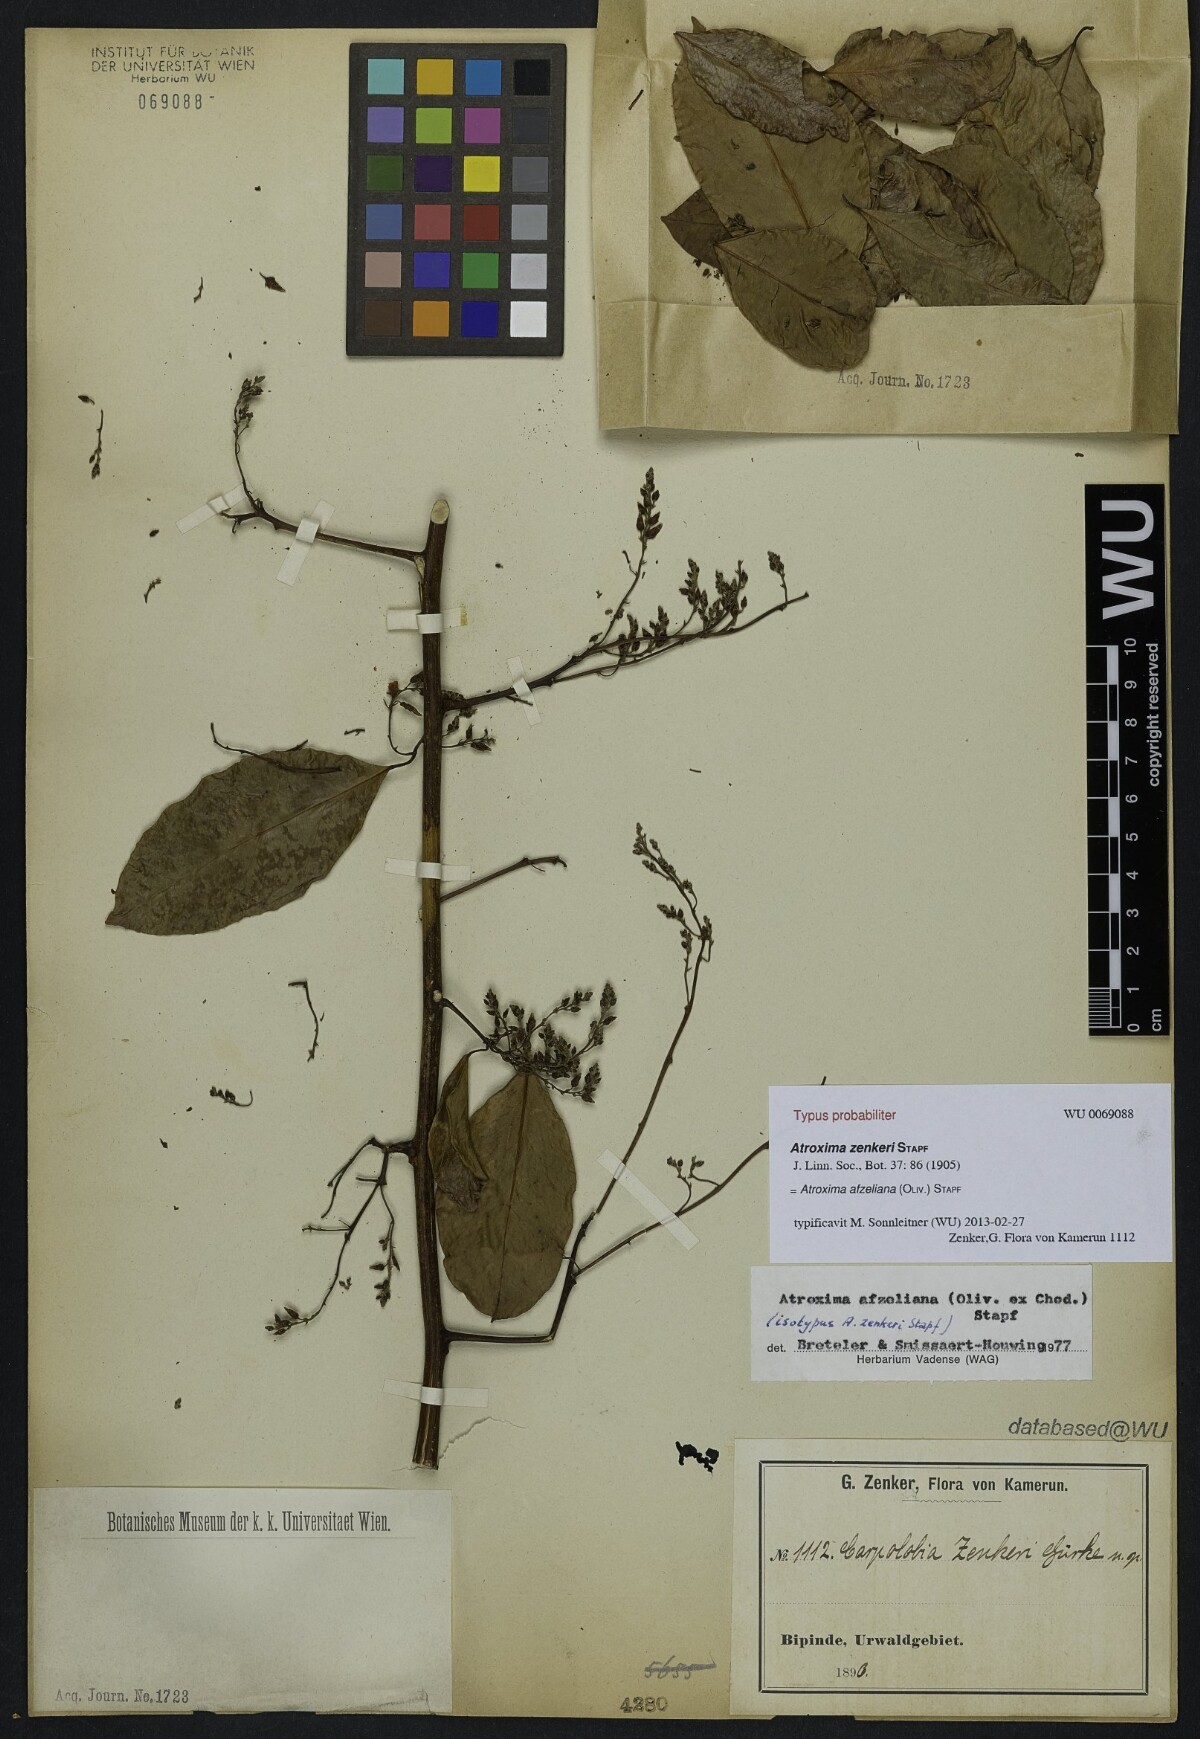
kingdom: Plantae
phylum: Tracheophyta
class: Magnoliopsida
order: Fabales
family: Polygalaceae
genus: Atroxima
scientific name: Atroxima afzeliana
